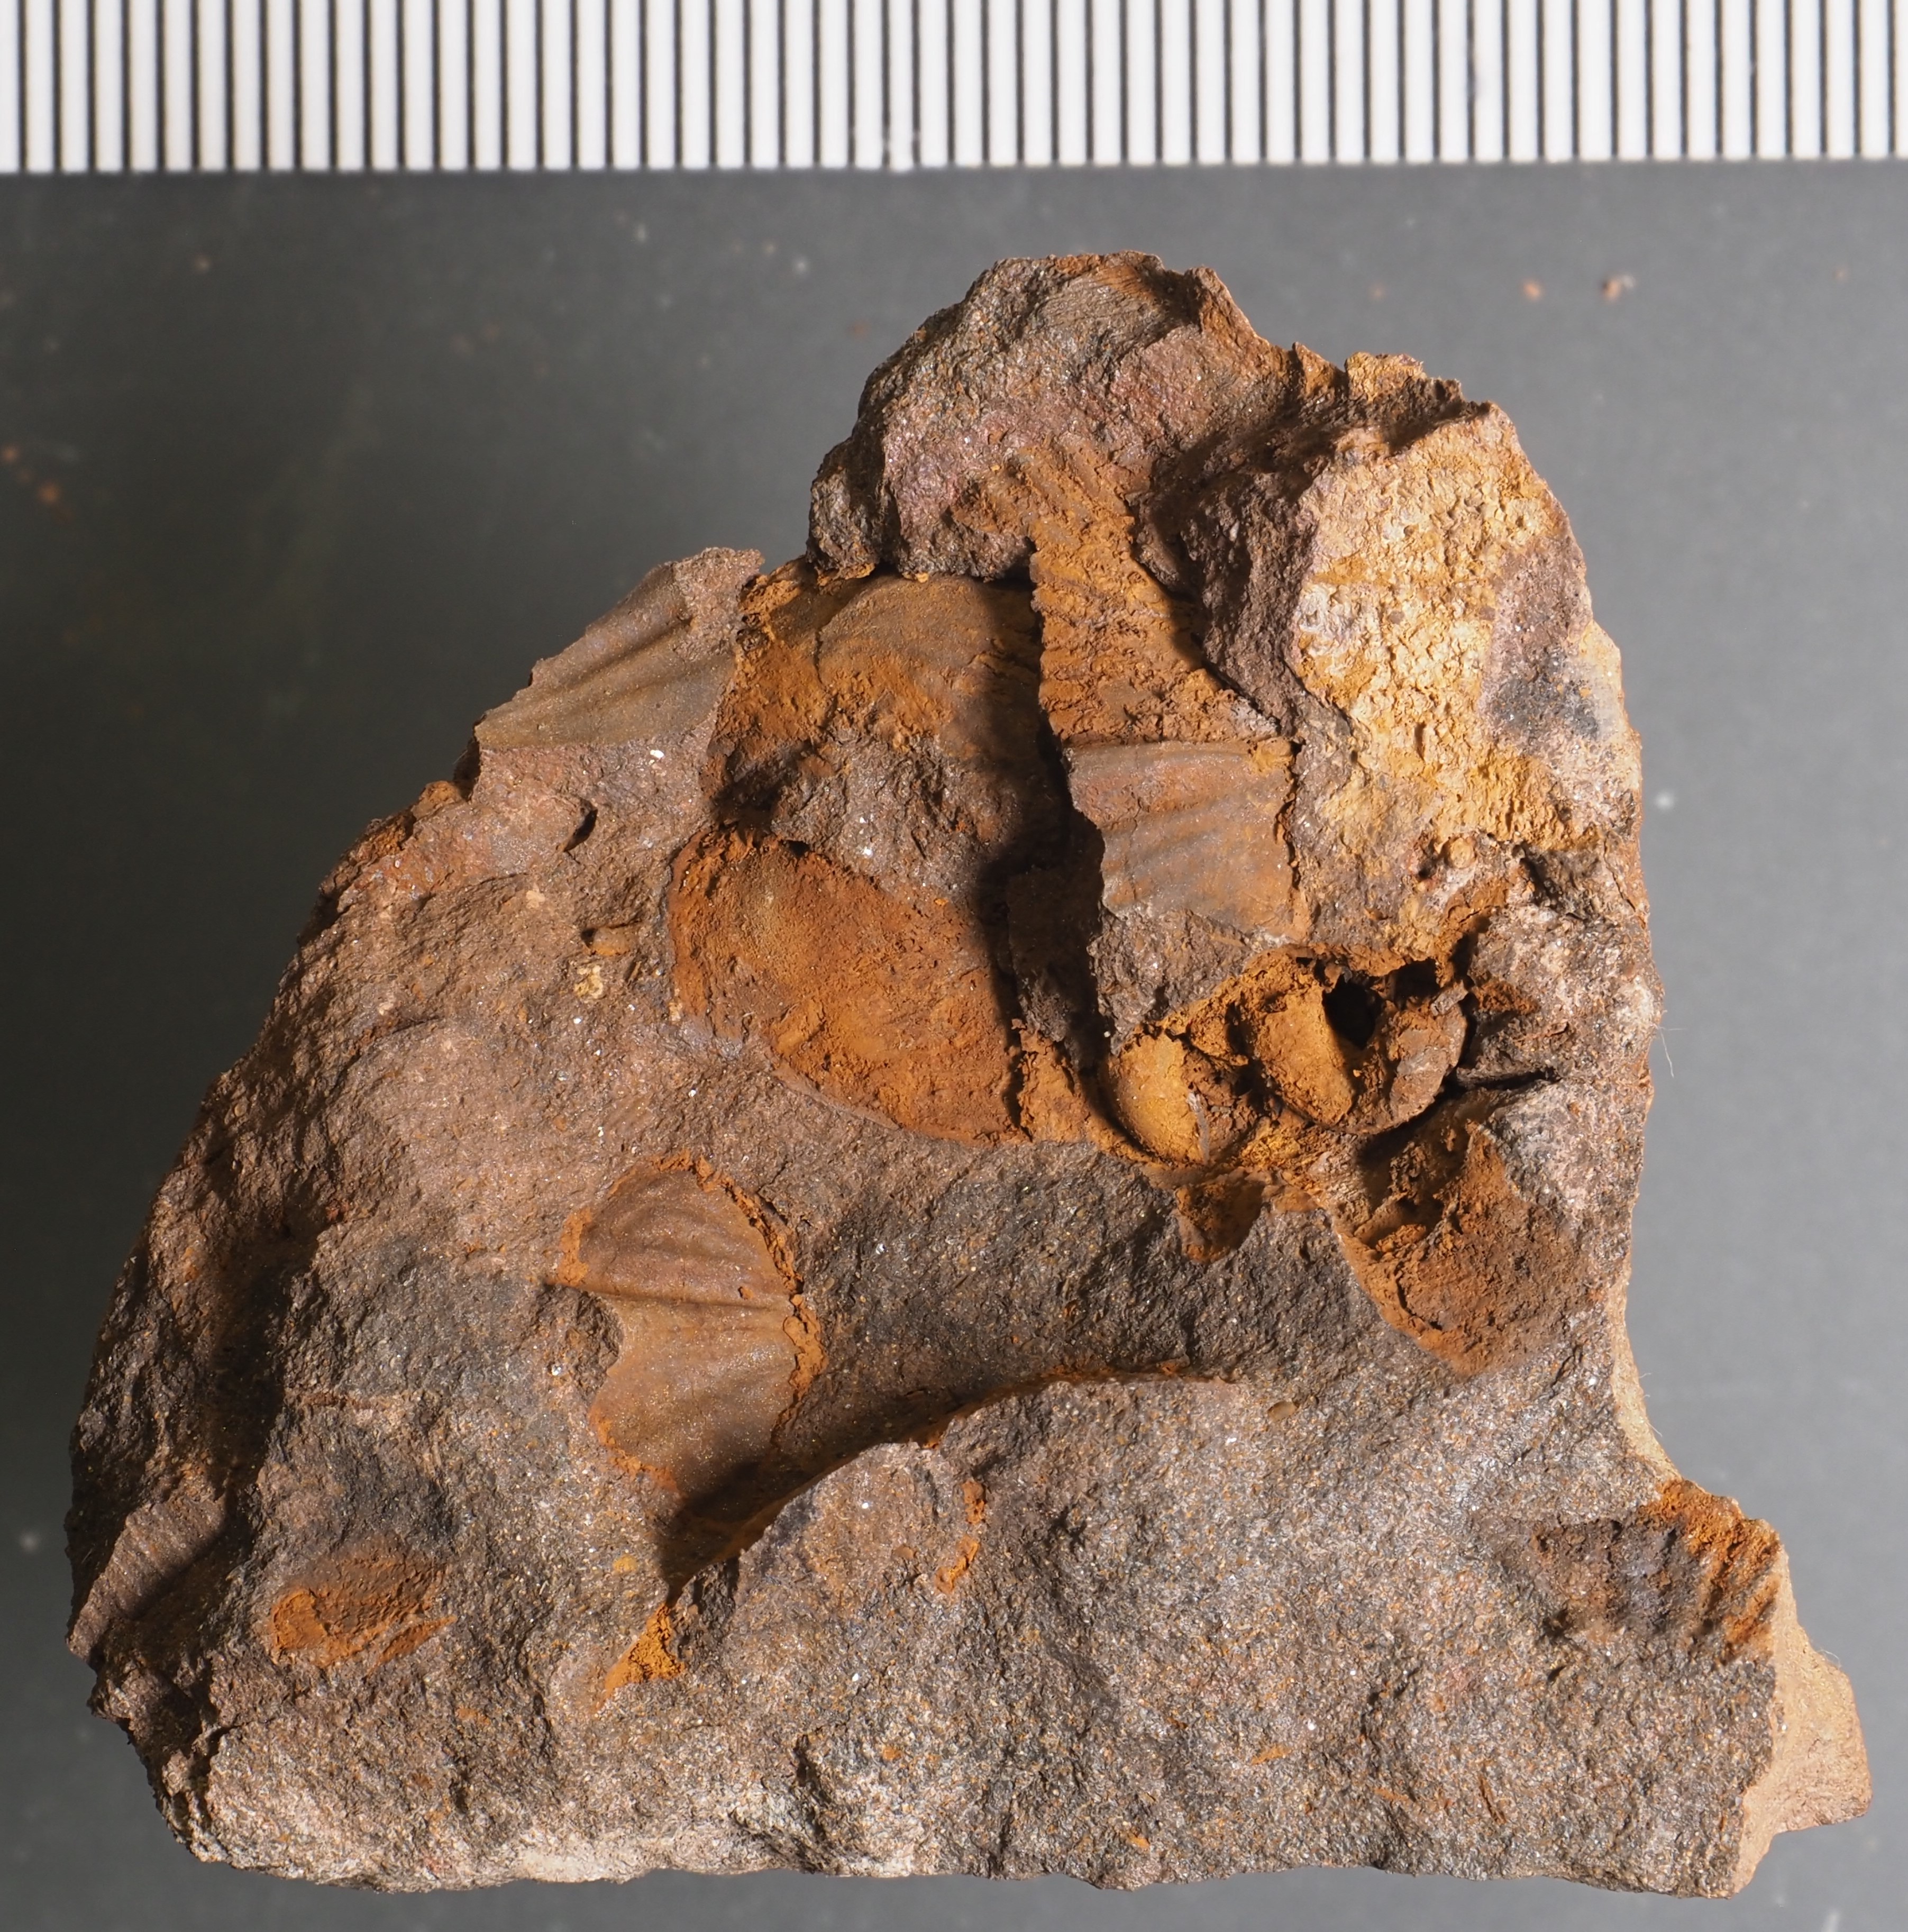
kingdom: Animalia
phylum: Annelida
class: Polychaeta
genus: Hicetes
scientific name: Hicetes
